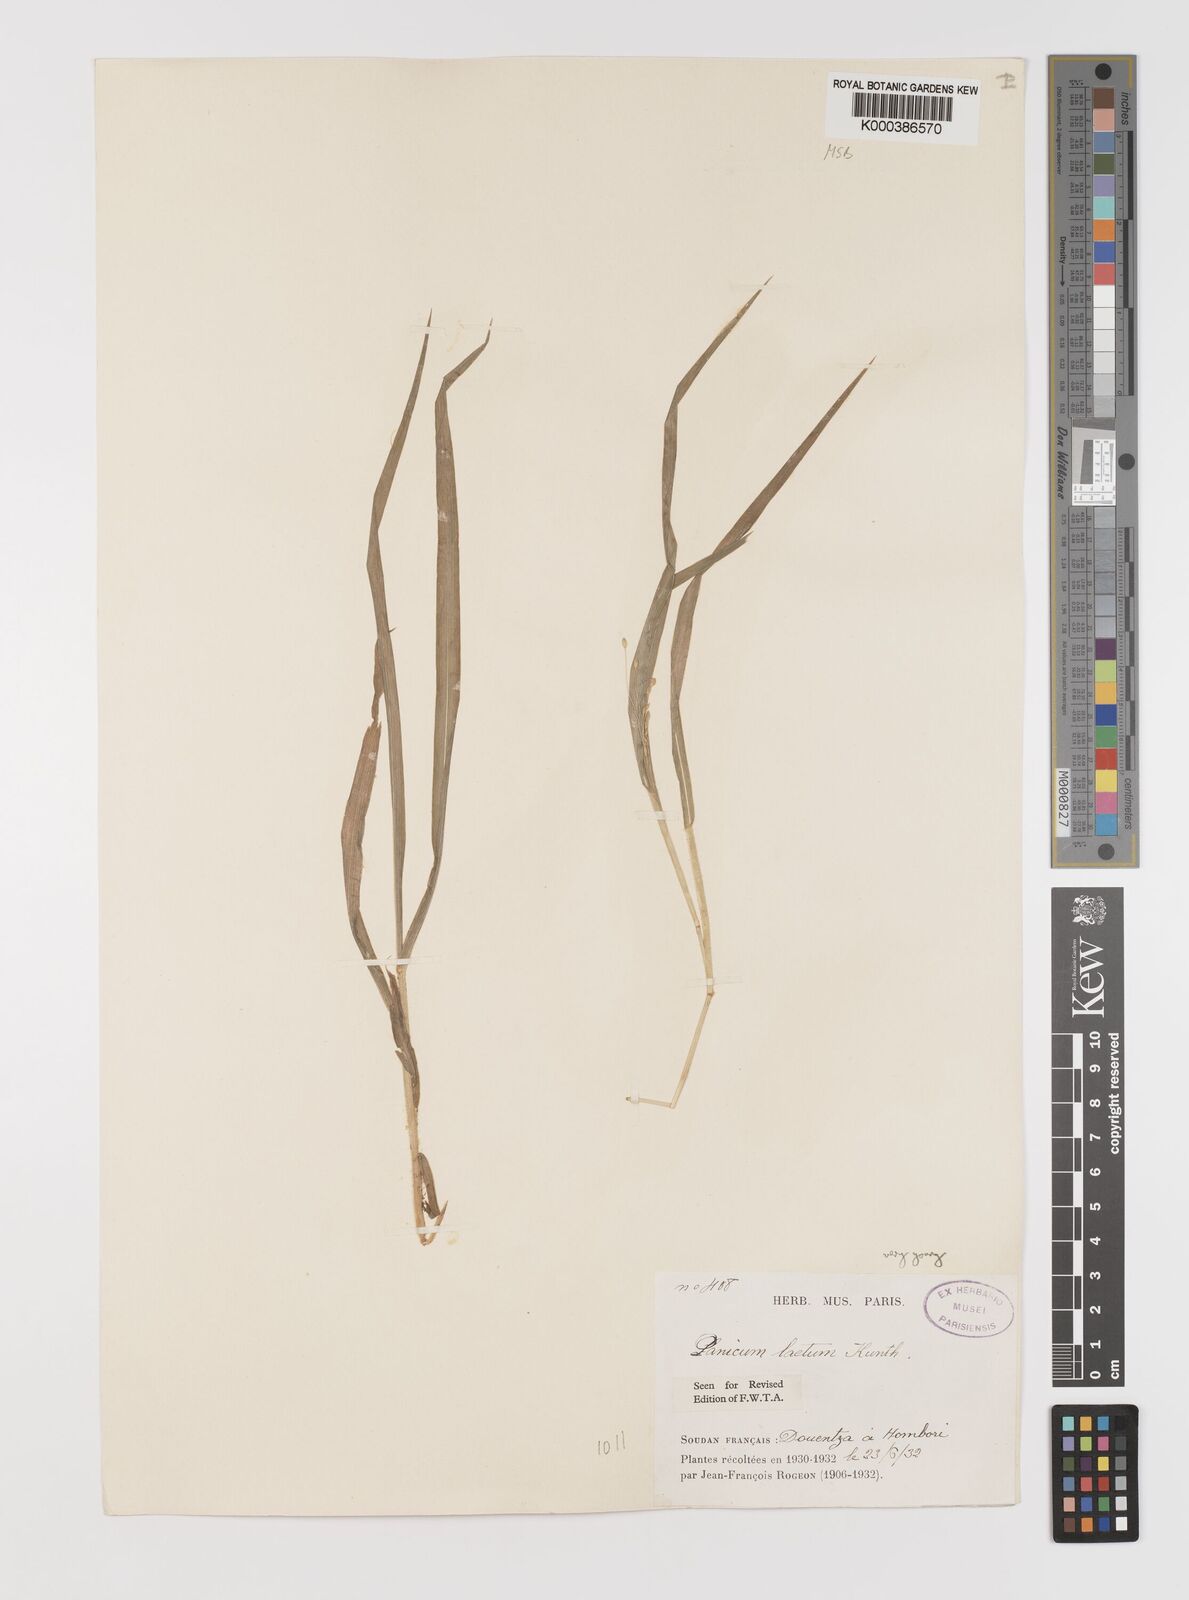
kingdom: Plantae
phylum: Tracheophyta
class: Liliopsida
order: Poales
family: Poaceae
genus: Panicum
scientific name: Panicum laetum
